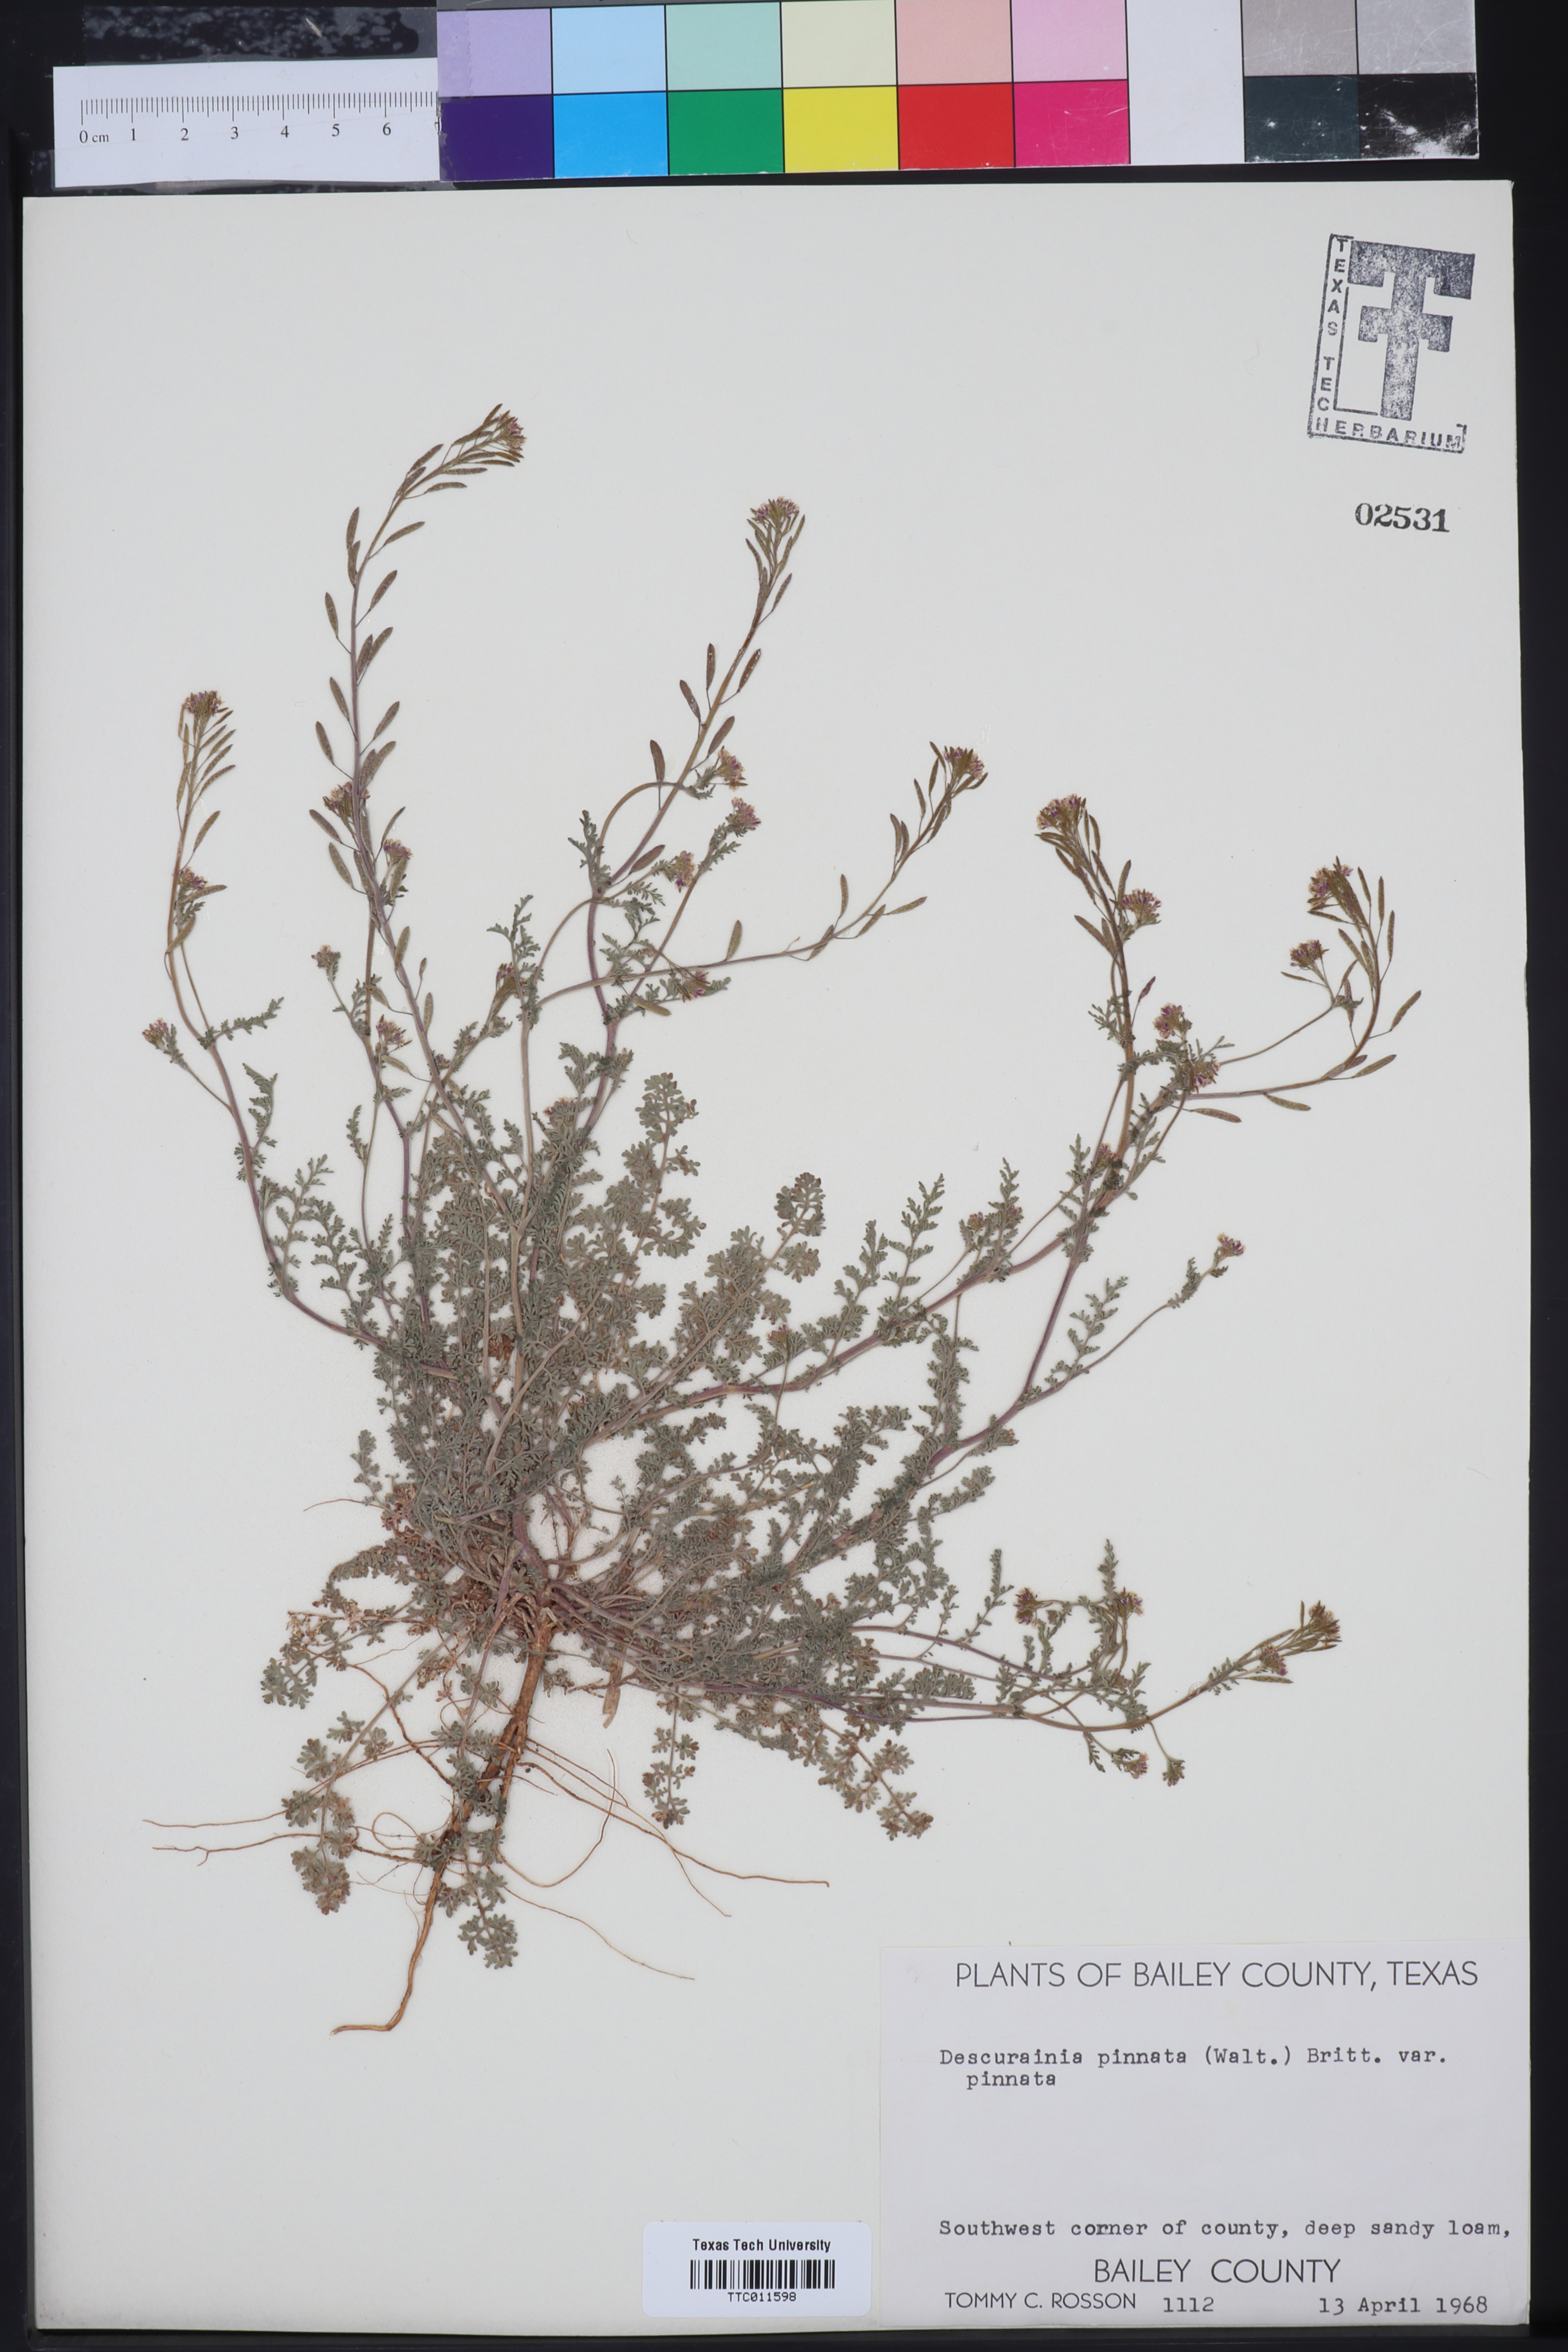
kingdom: Plantae
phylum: Tracheophyta
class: Magnoliopsida
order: Brassicales
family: Brassicaceae
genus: Descurainia
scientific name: Descurainia pinnata
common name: Western tansy mustard
